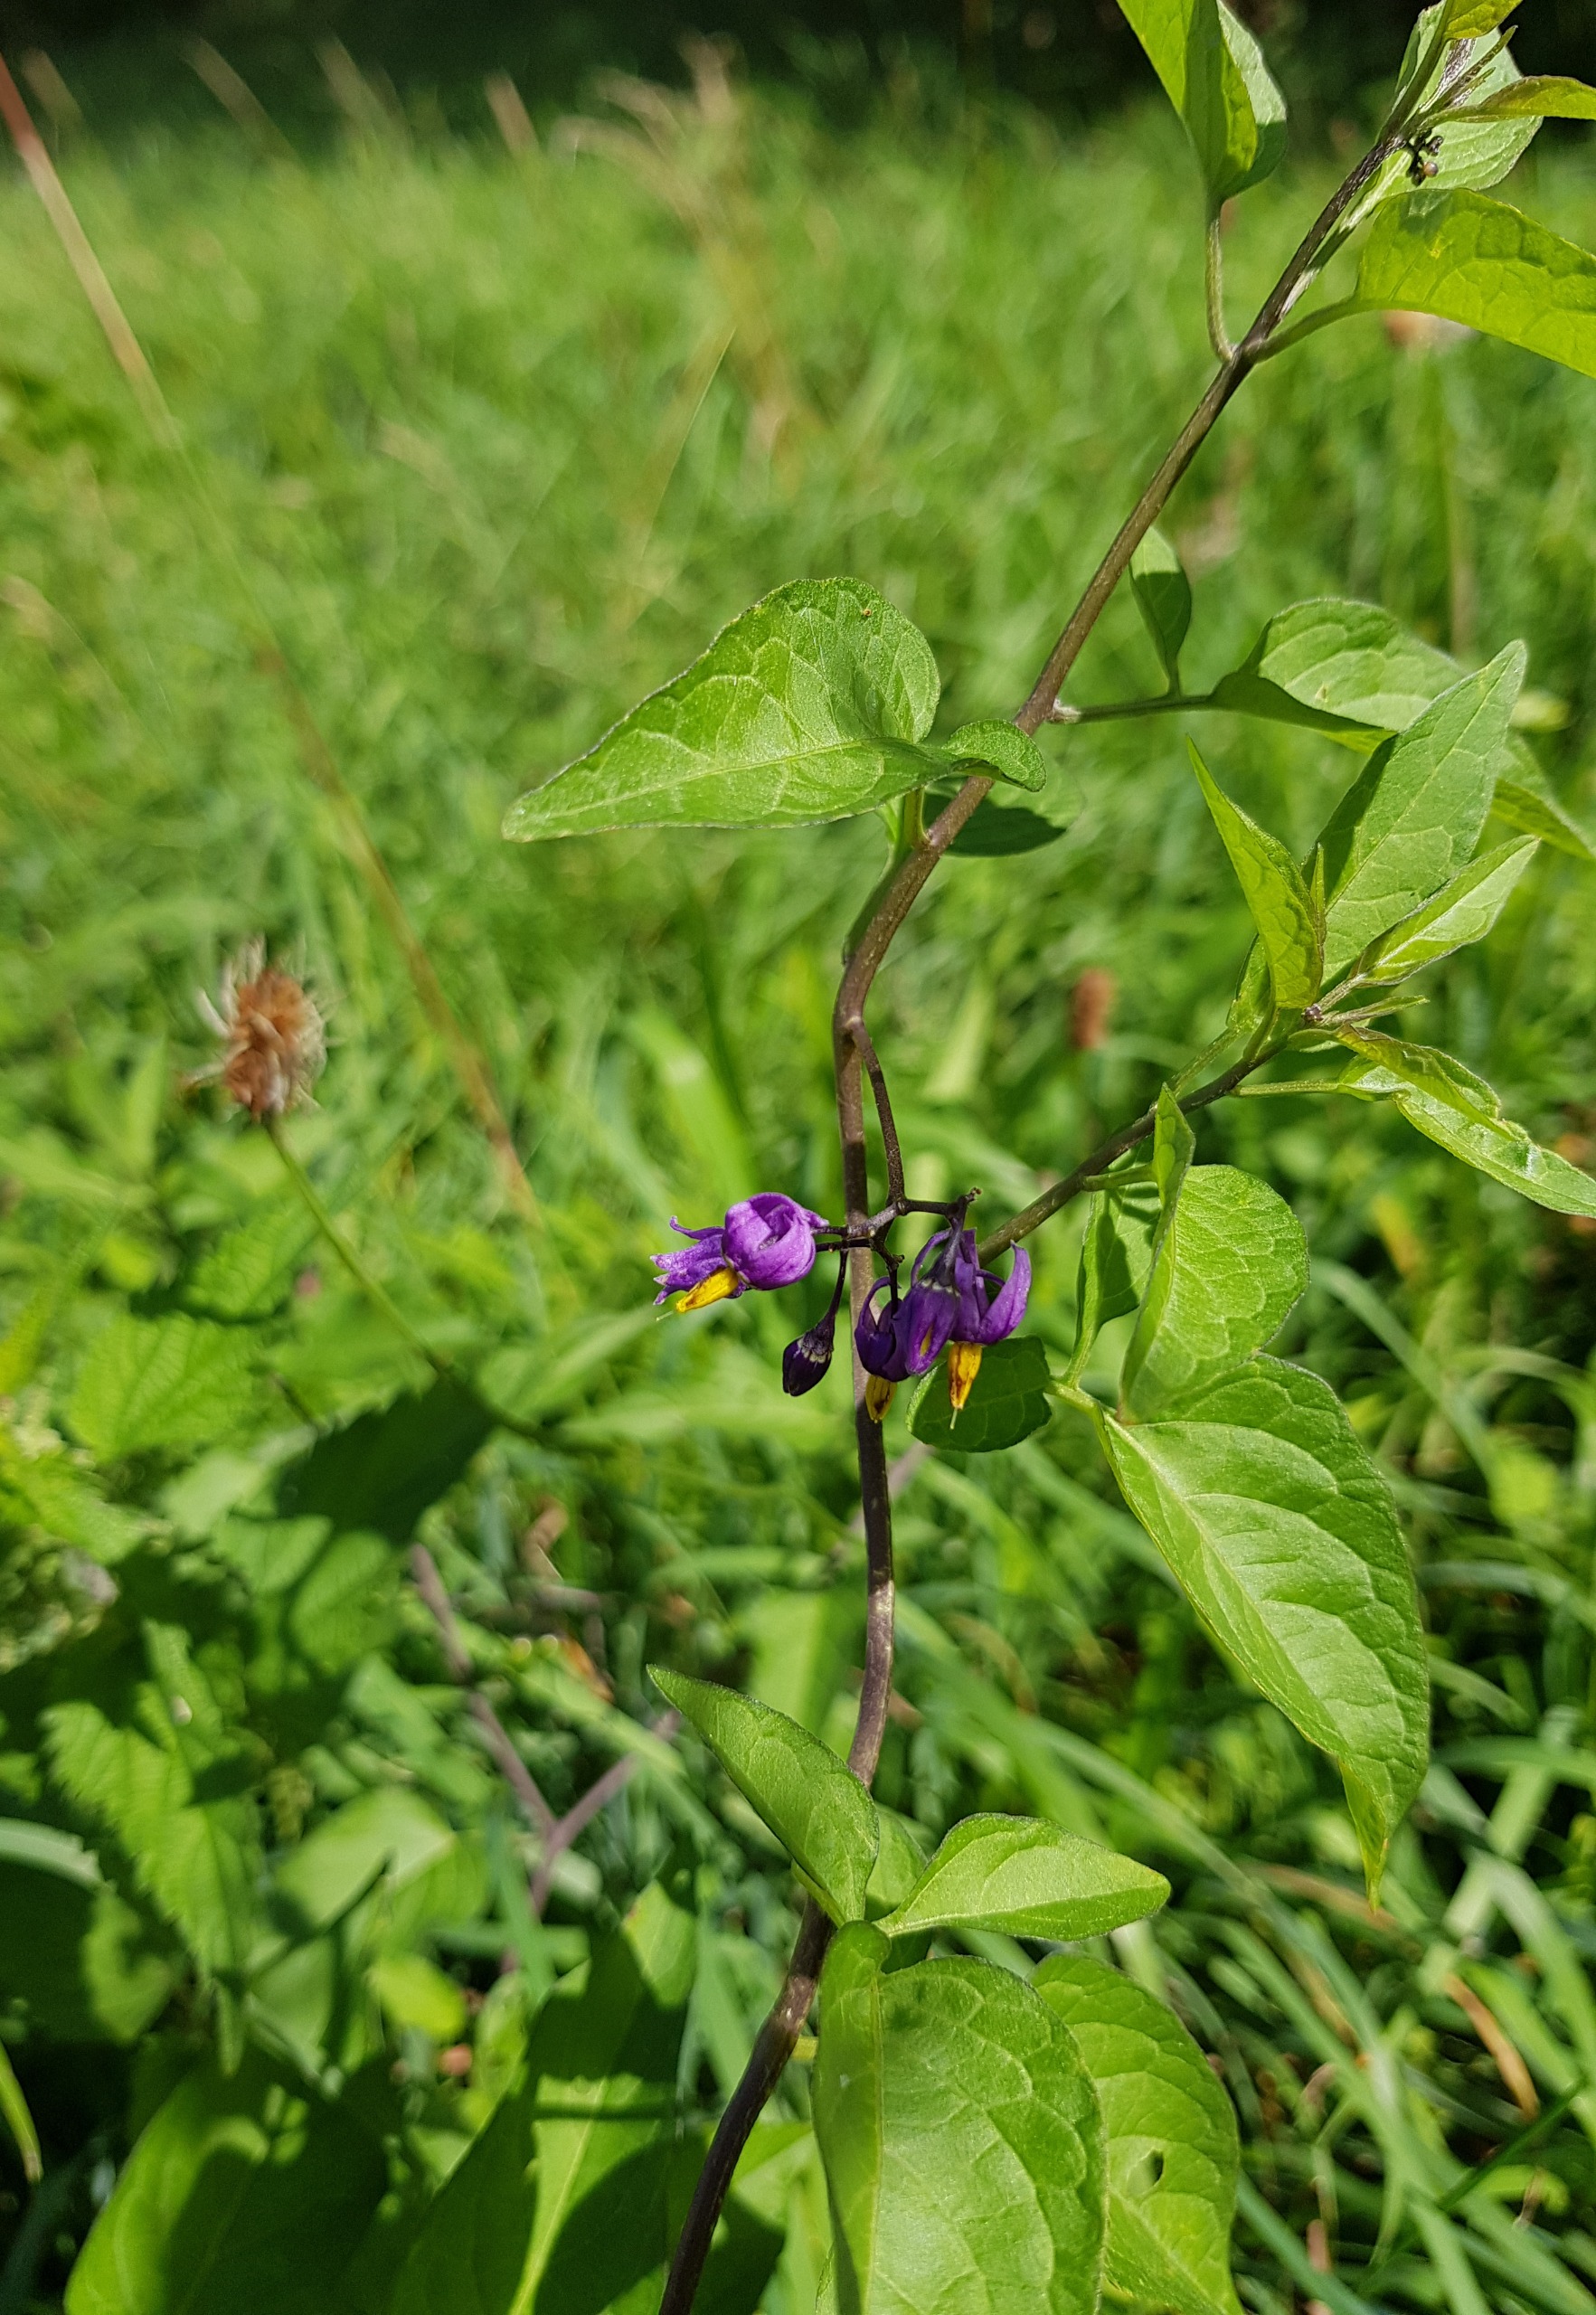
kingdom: Plantae
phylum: Tracheophyta
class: Magnoliopsida
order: Solanales
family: Solanaceae
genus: Solanum
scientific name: Solanum dulcamara
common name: Bittersød natskygge
